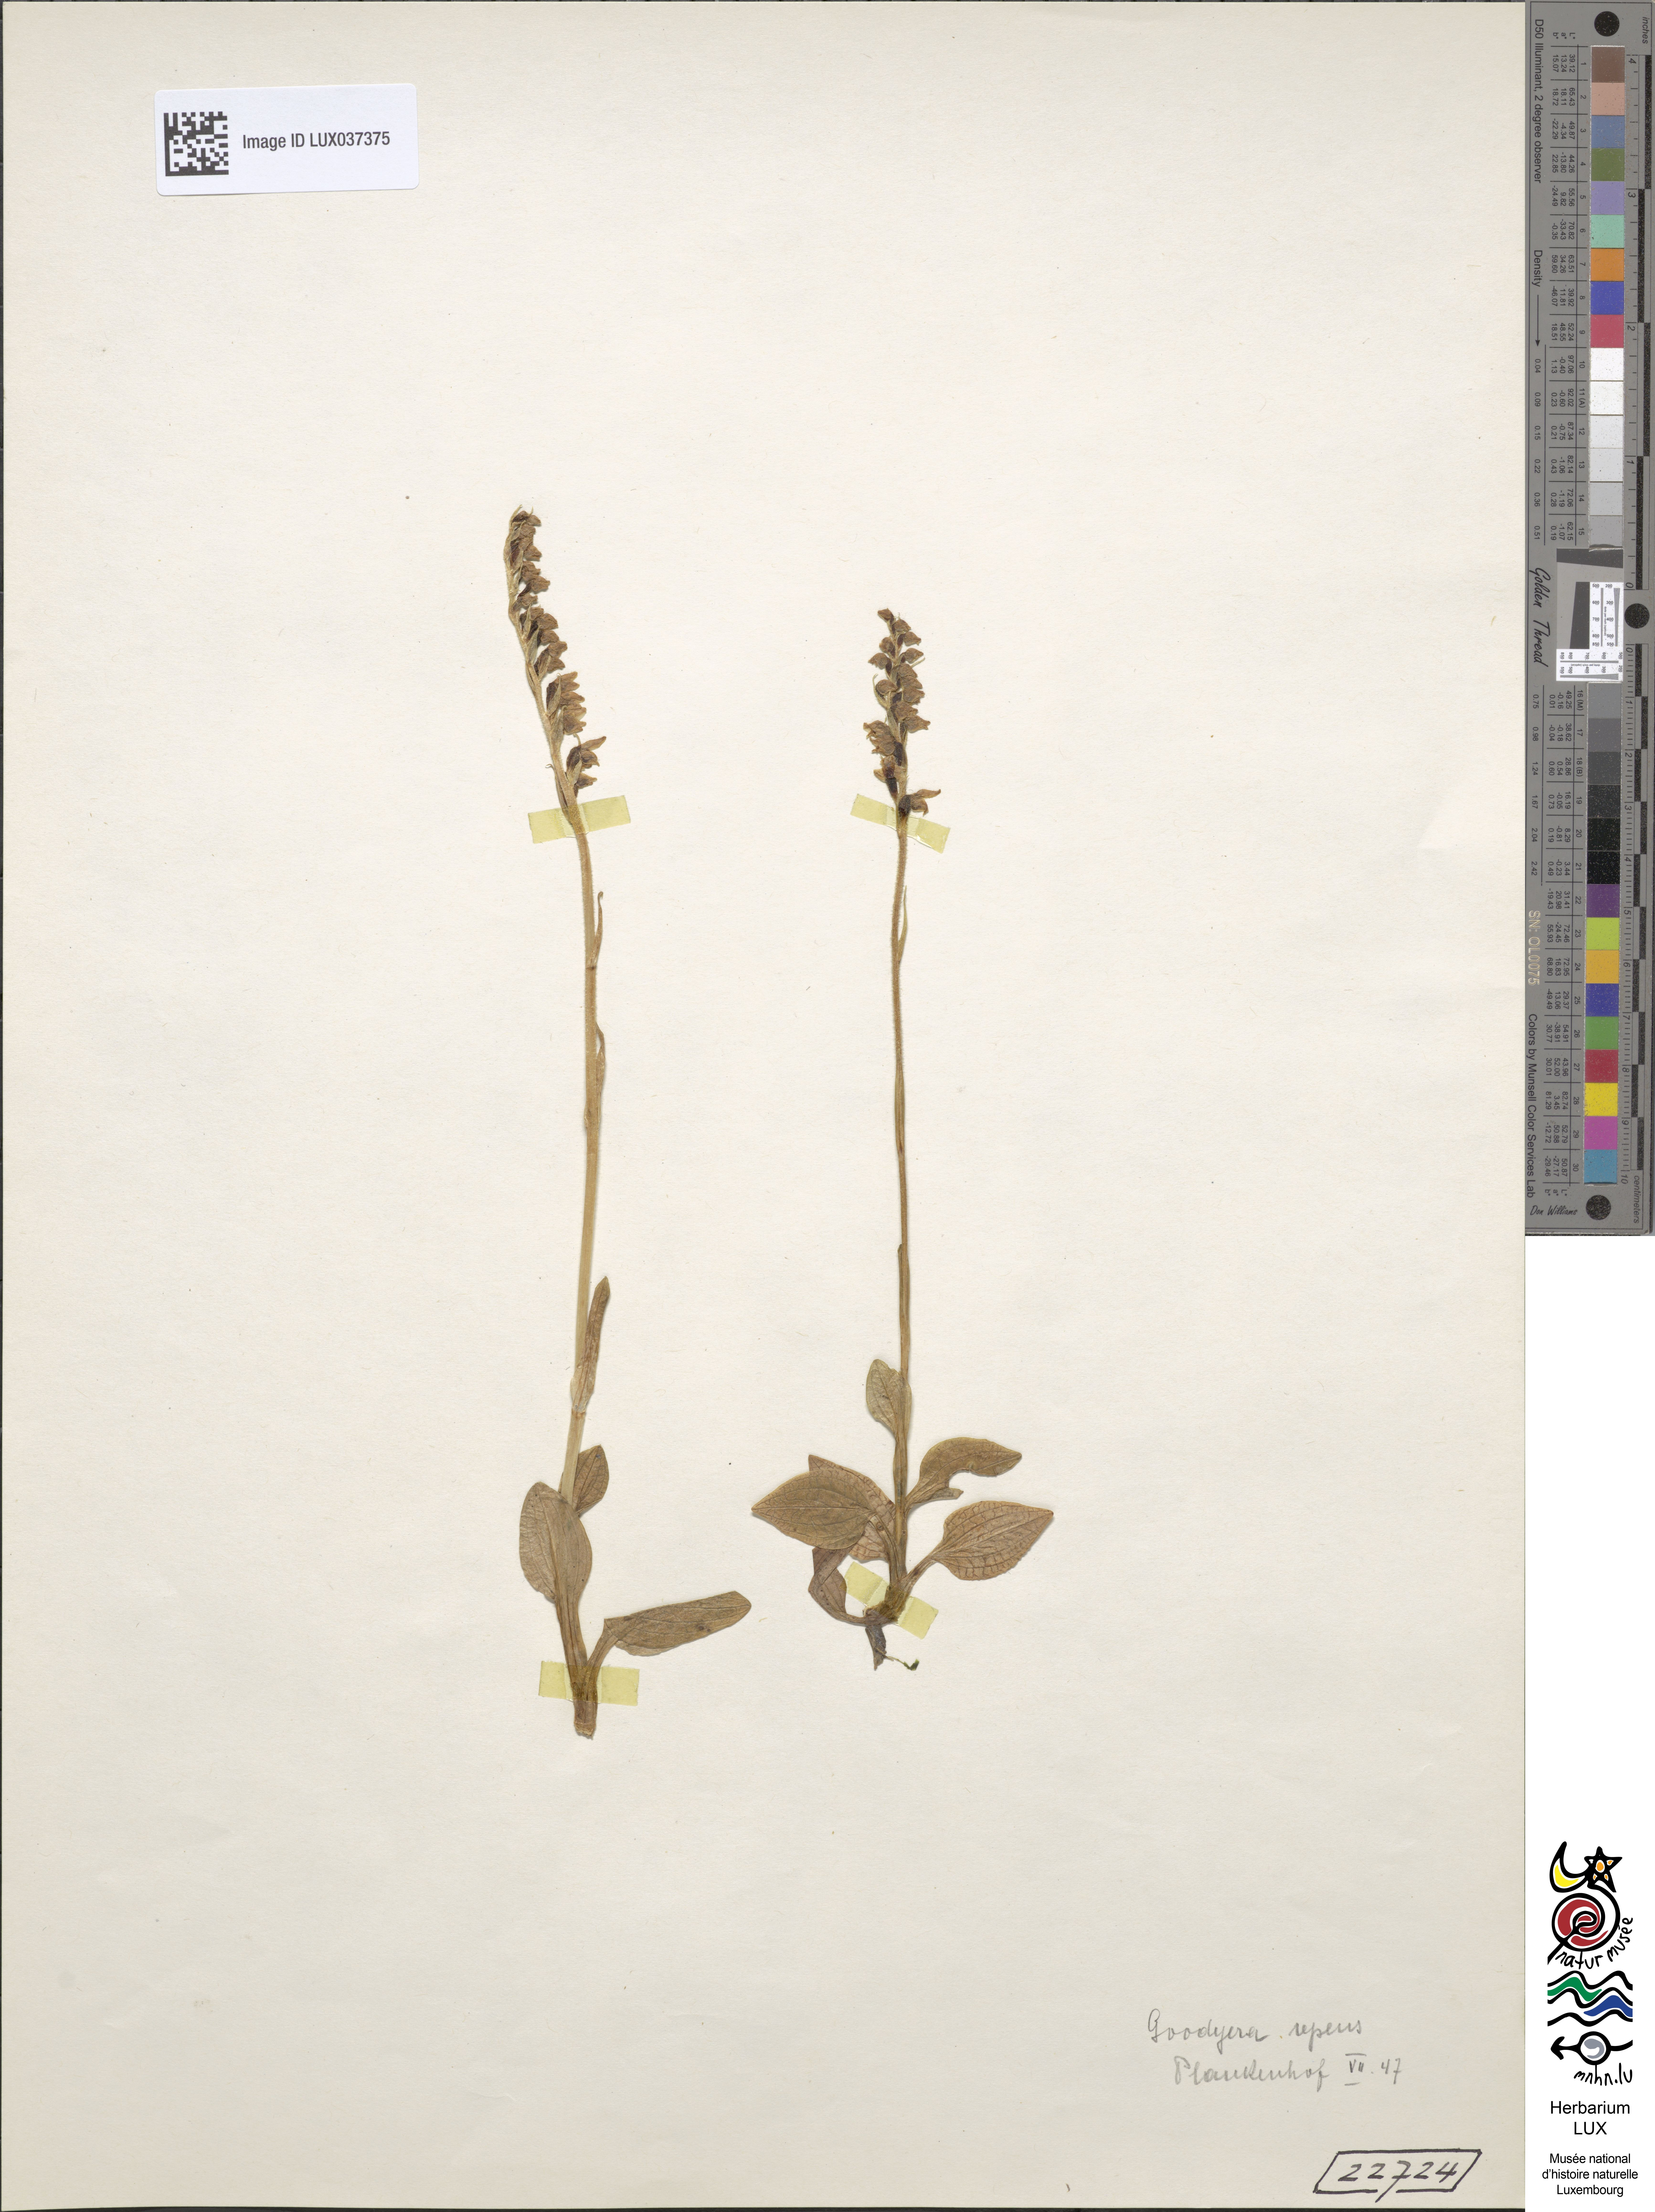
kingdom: Plantae
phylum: Tracheophyta
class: Liliopsida
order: Asparagales
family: Orchidaceae
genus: Goodyera
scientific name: Goodyera repens
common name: Creeping lady's-tresses
